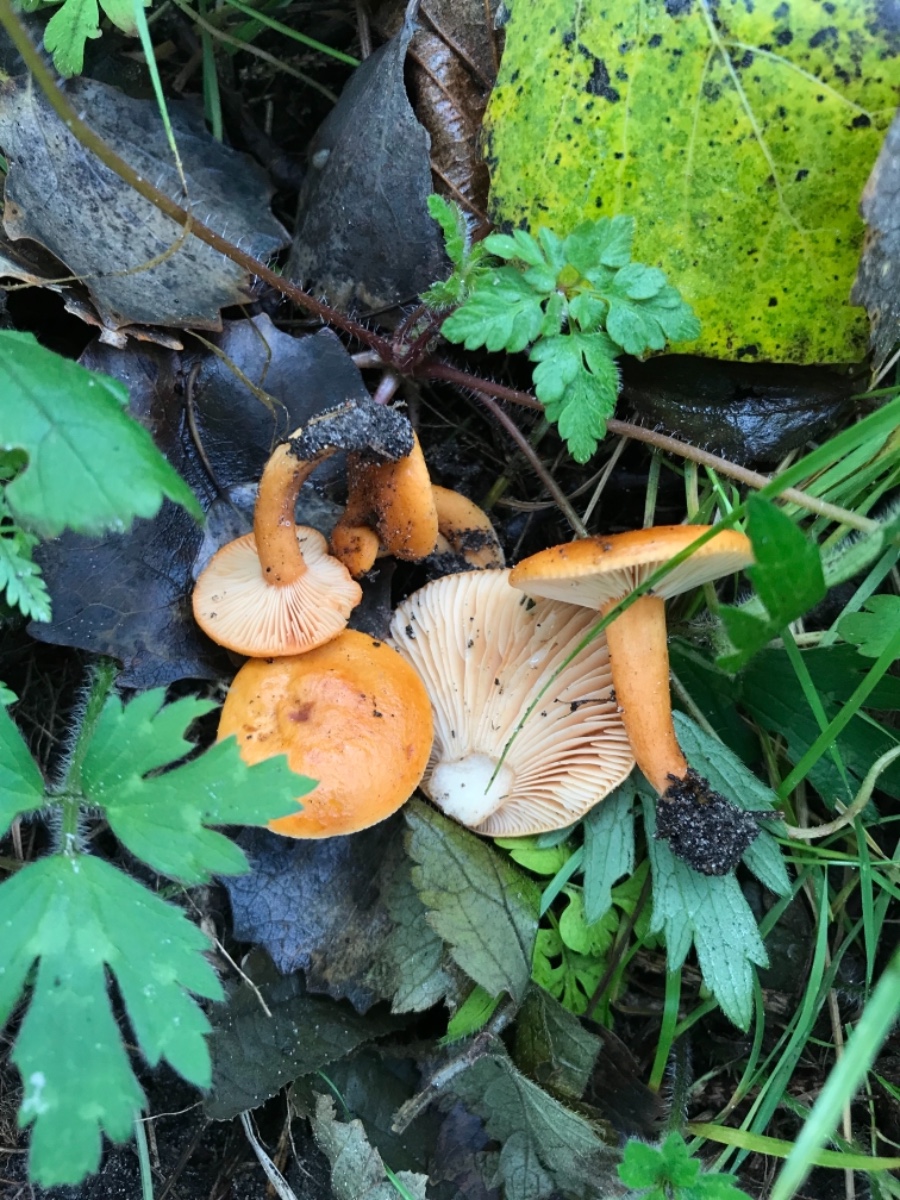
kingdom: Fungi
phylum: Basidiomycota
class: Agaricomycetes
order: Russulales
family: Russulaceae
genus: Lactarius
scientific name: Lactarius aurantiacus
